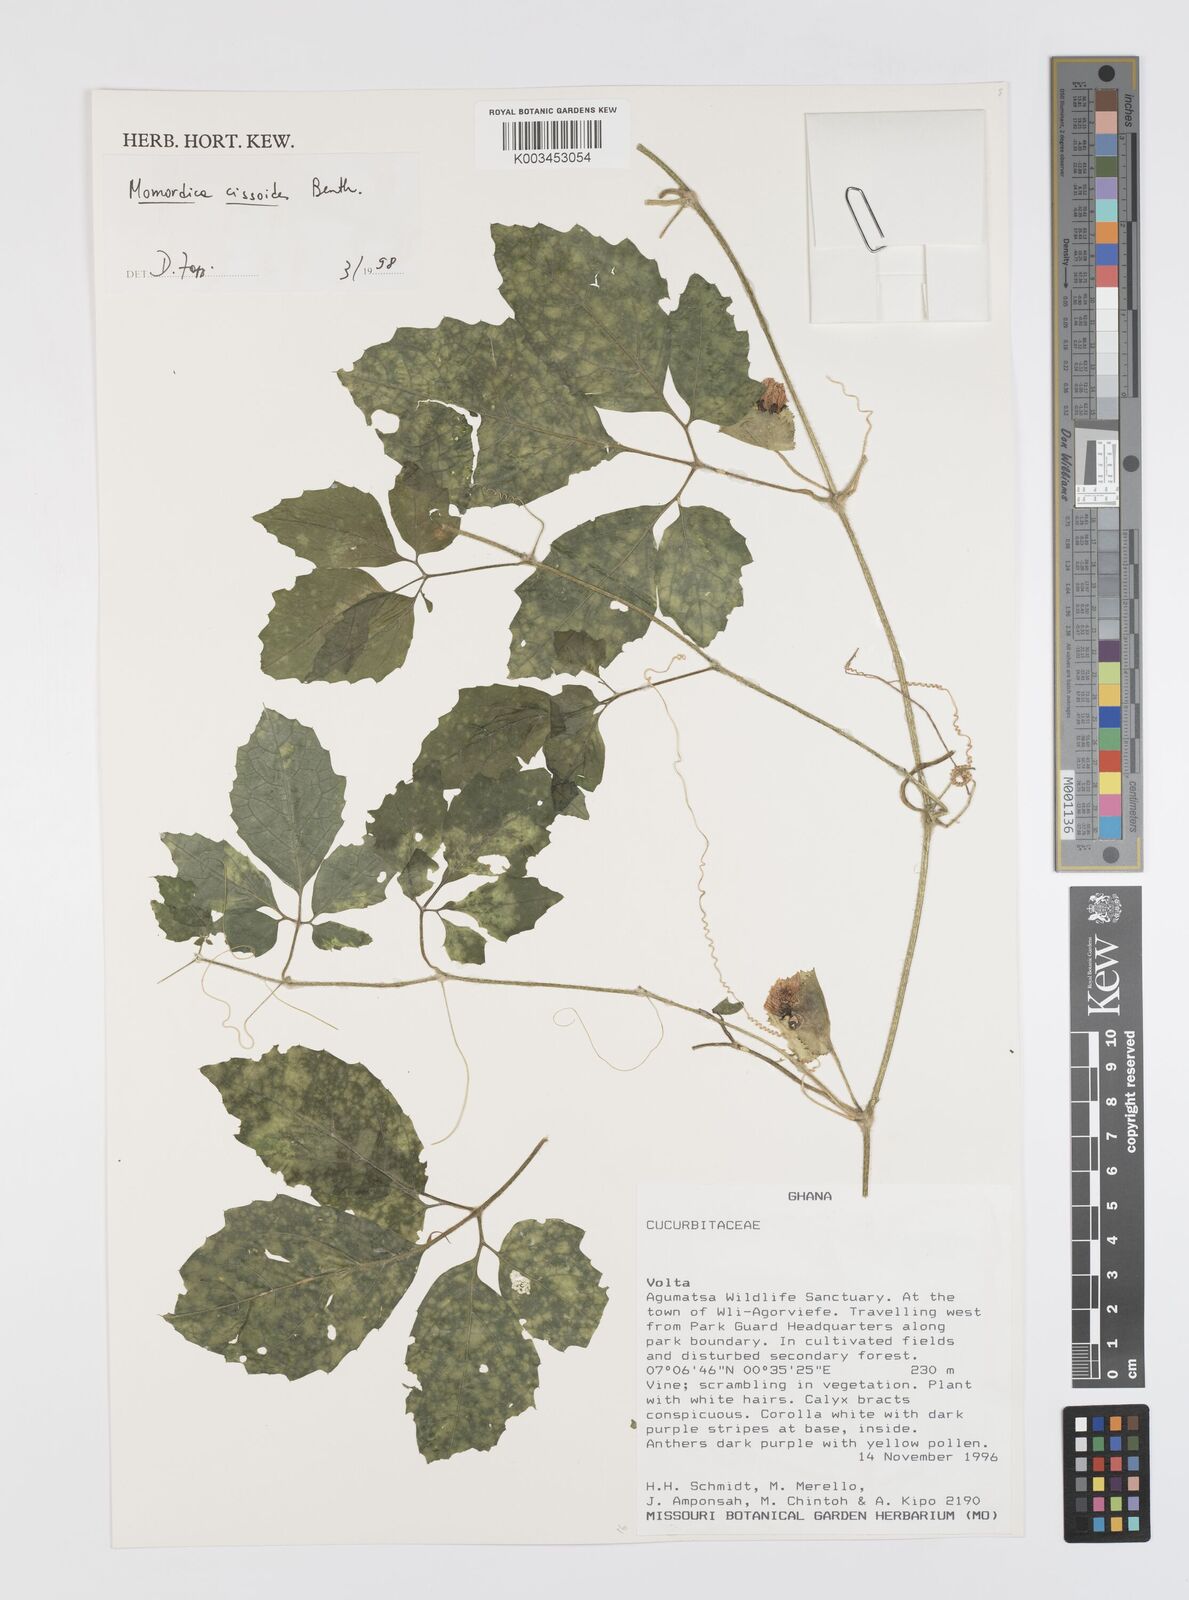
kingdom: Plantae
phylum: Tracheophyta
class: Magnoliopsida
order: Cucurbitales
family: Cucurbitaceae
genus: Momordica
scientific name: Momordica cissoides
